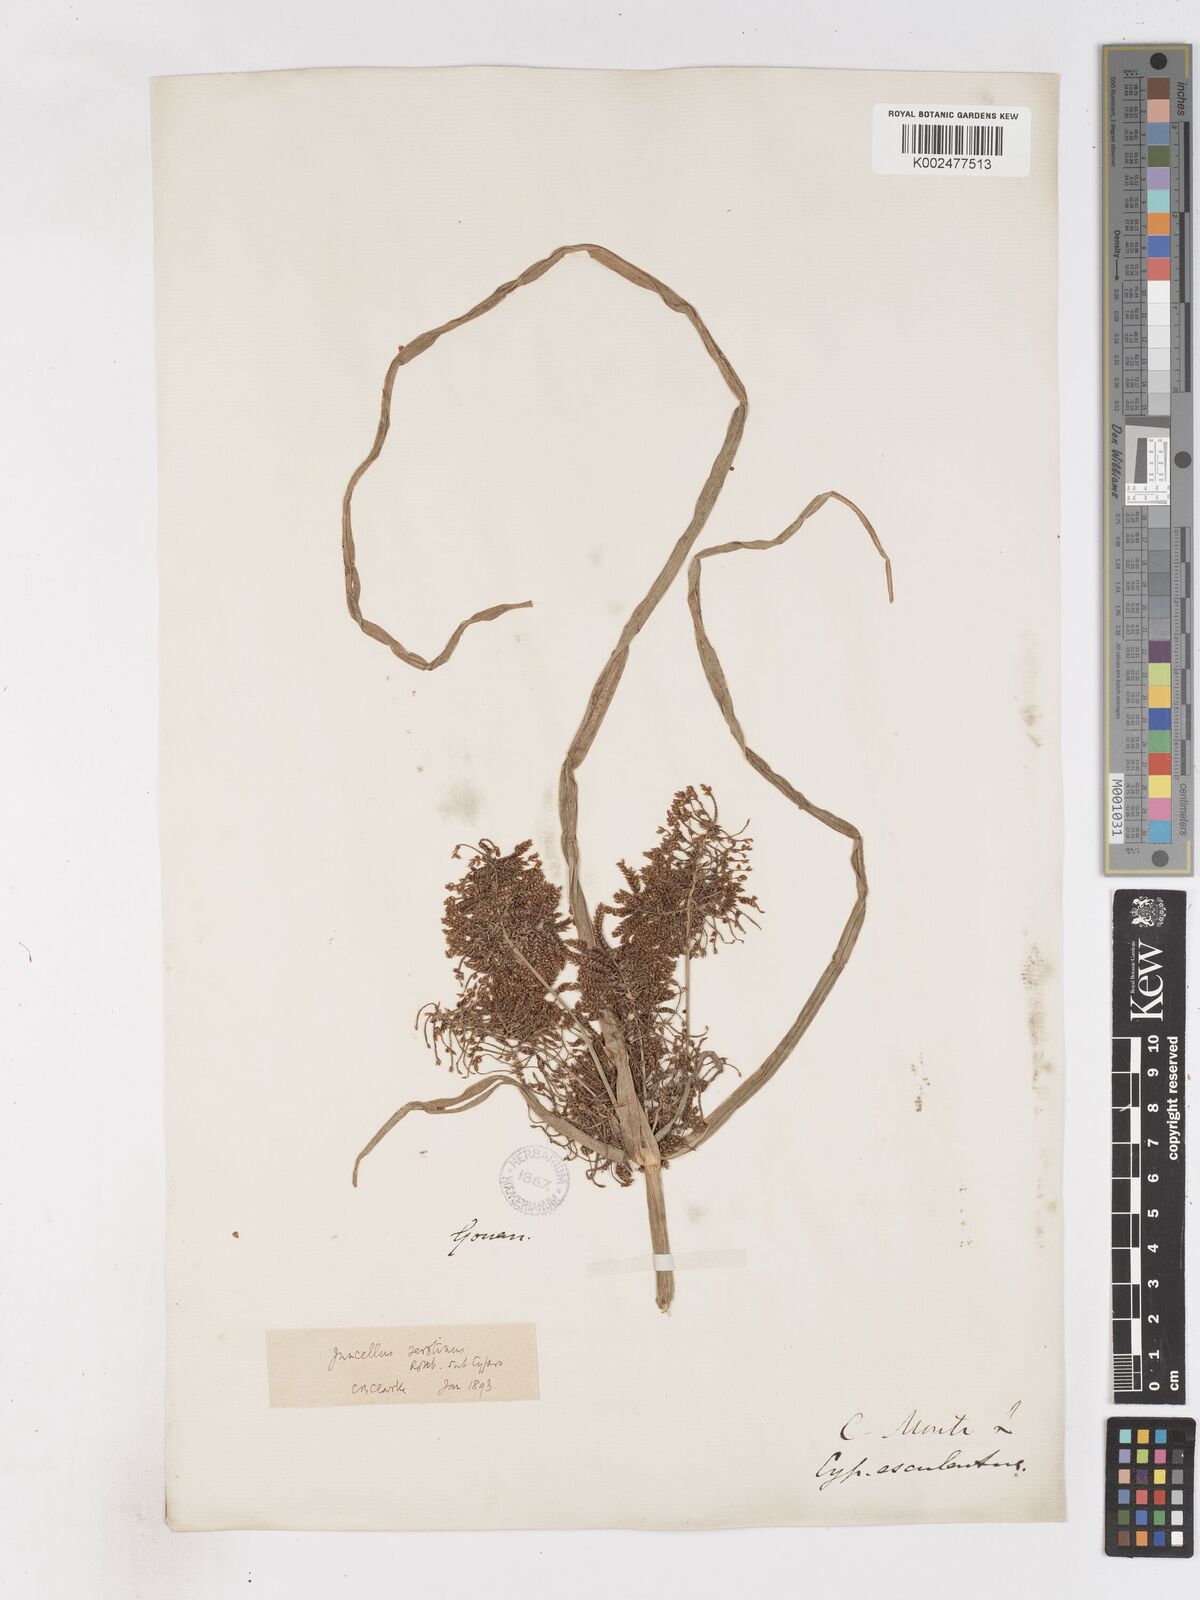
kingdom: Plantae
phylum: Tracheophyta
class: Liliopsida
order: Poales
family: Cyperaceae
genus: Cyperus
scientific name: Cyperus serotinus
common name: Tidalmarsh flatsedge
